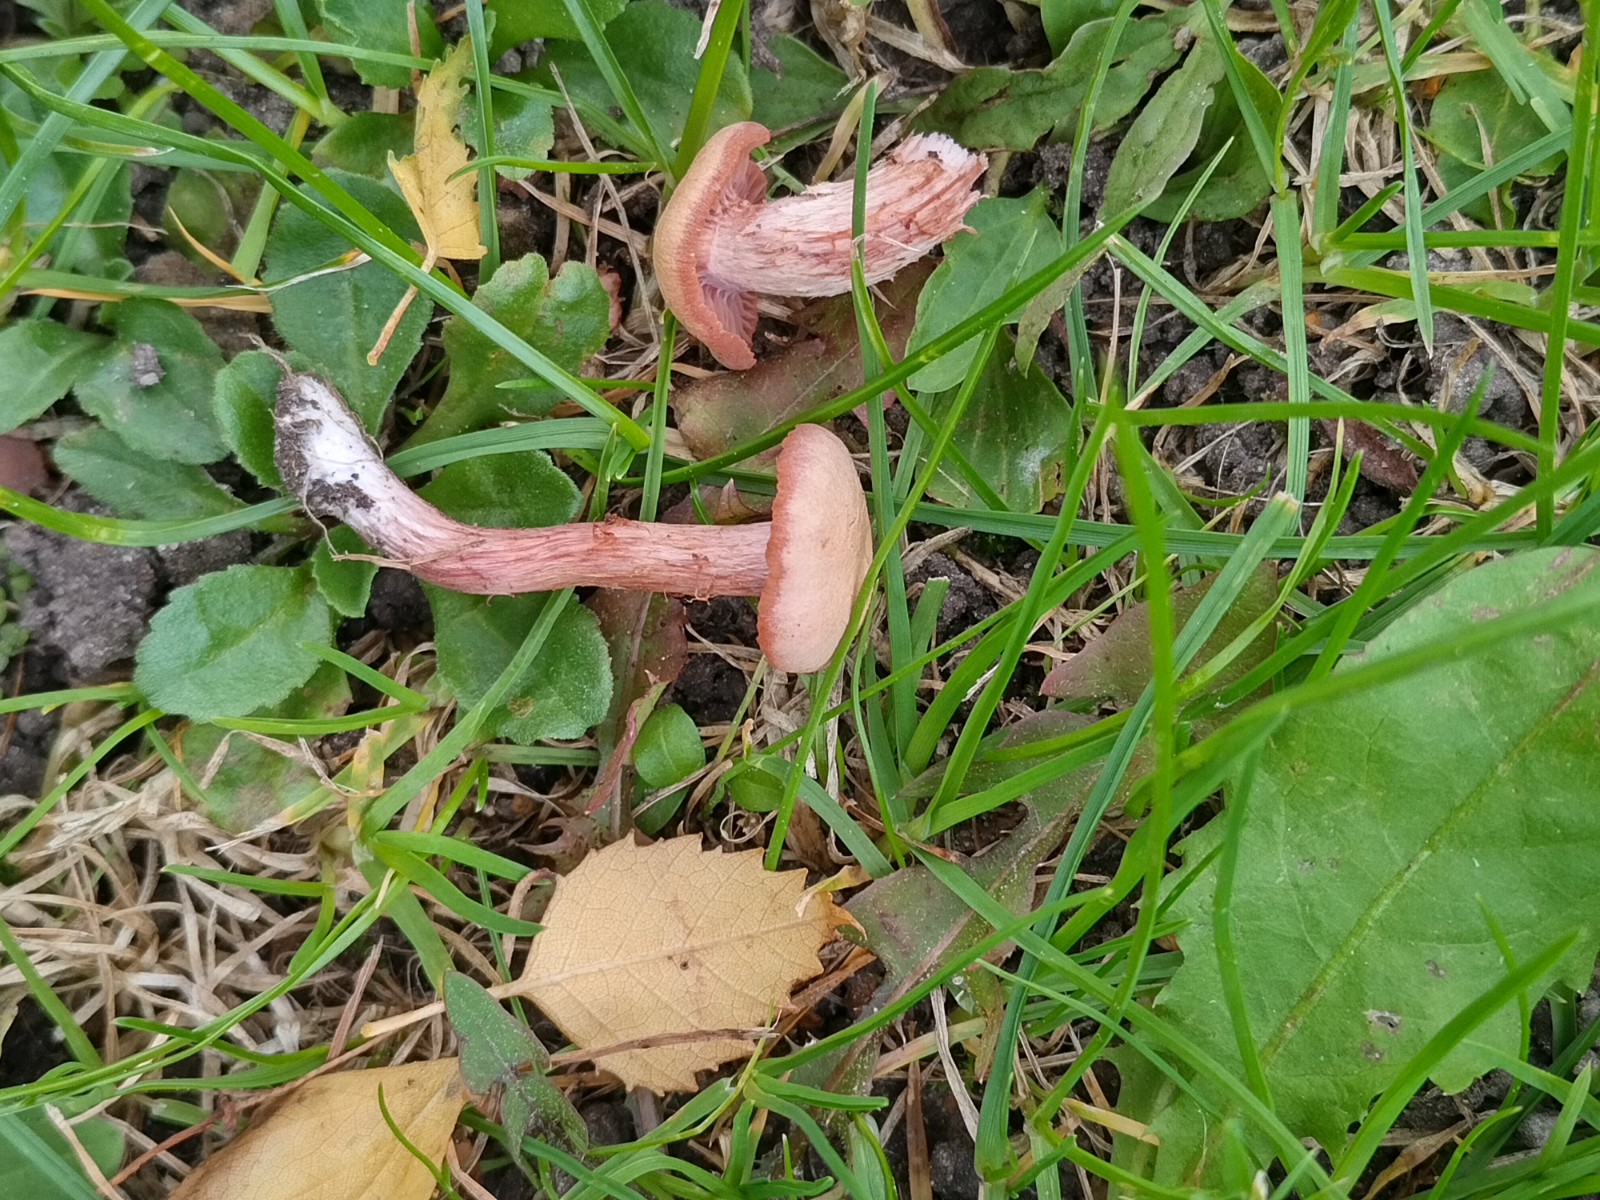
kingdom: Fungi
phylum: Basidiomycota
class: Agaricomycetes
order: Agaricales
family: Hydnangiaceae
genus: Laccaria
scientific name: Laccaria laccata
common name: rød ametysthat
